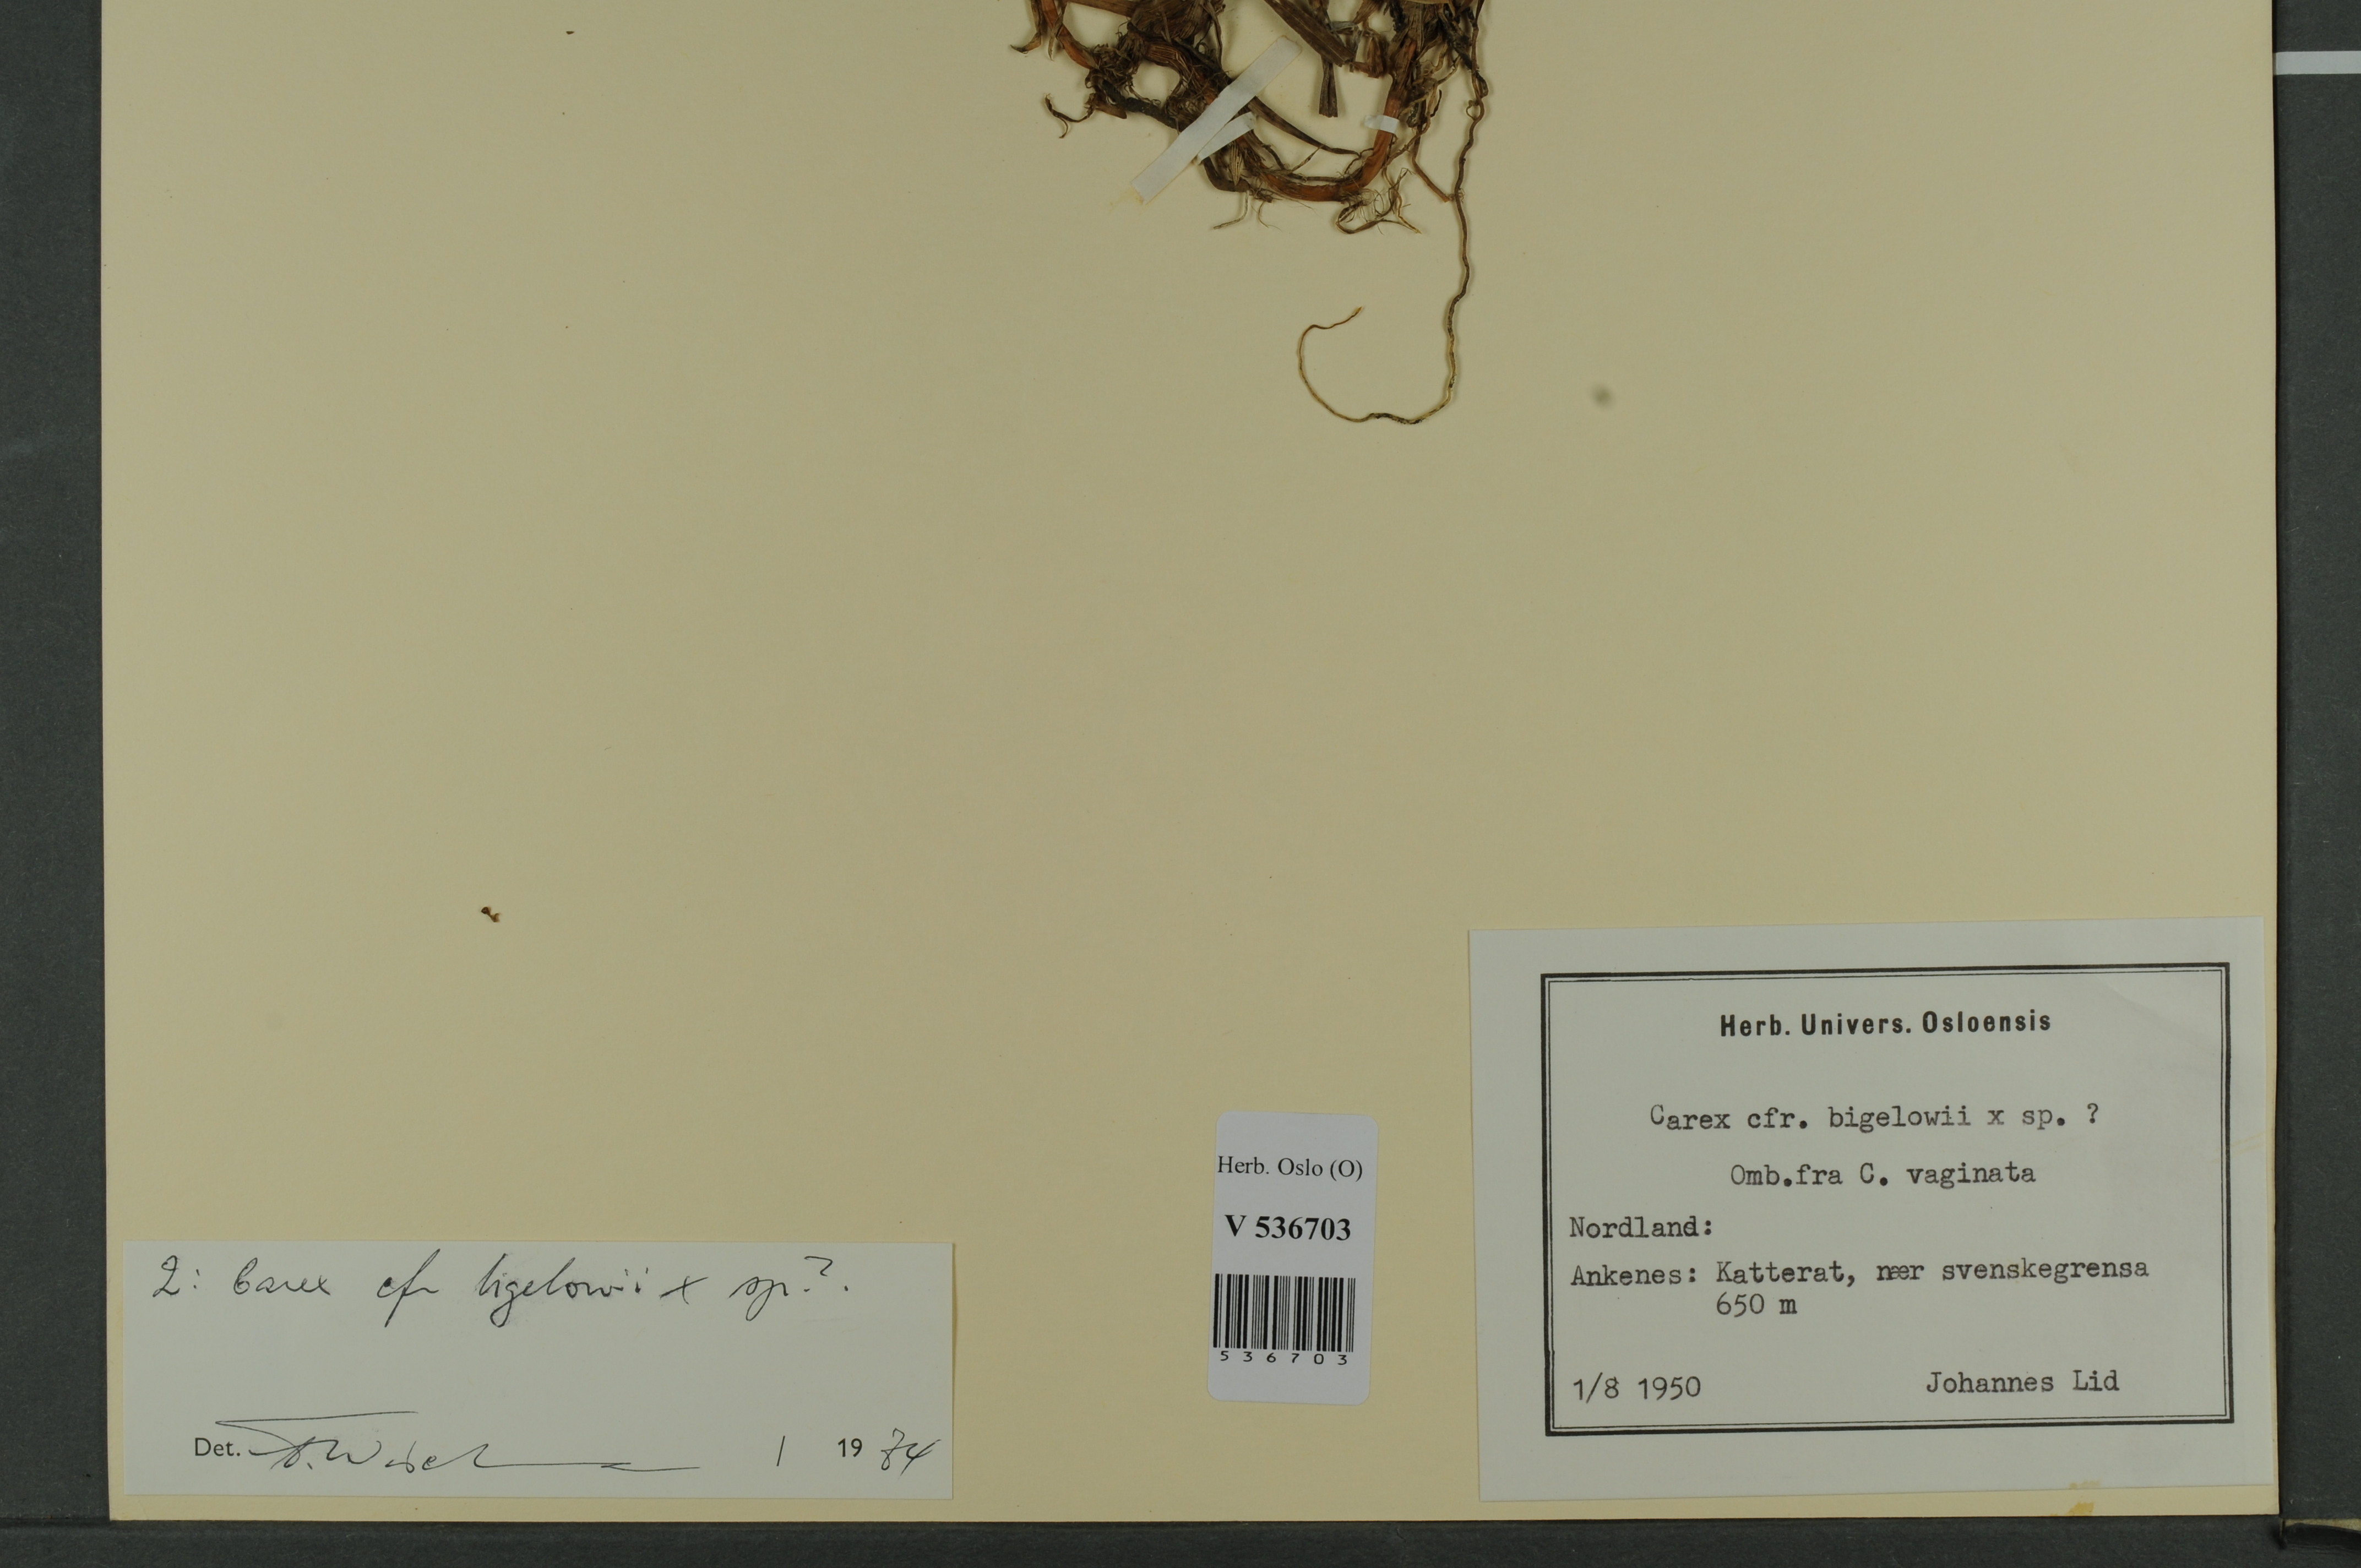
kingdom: Plantae
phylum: Tracheophyta
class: Liliopsida
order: Poales
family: Cyperaceae
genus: Carex
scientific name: Carex
